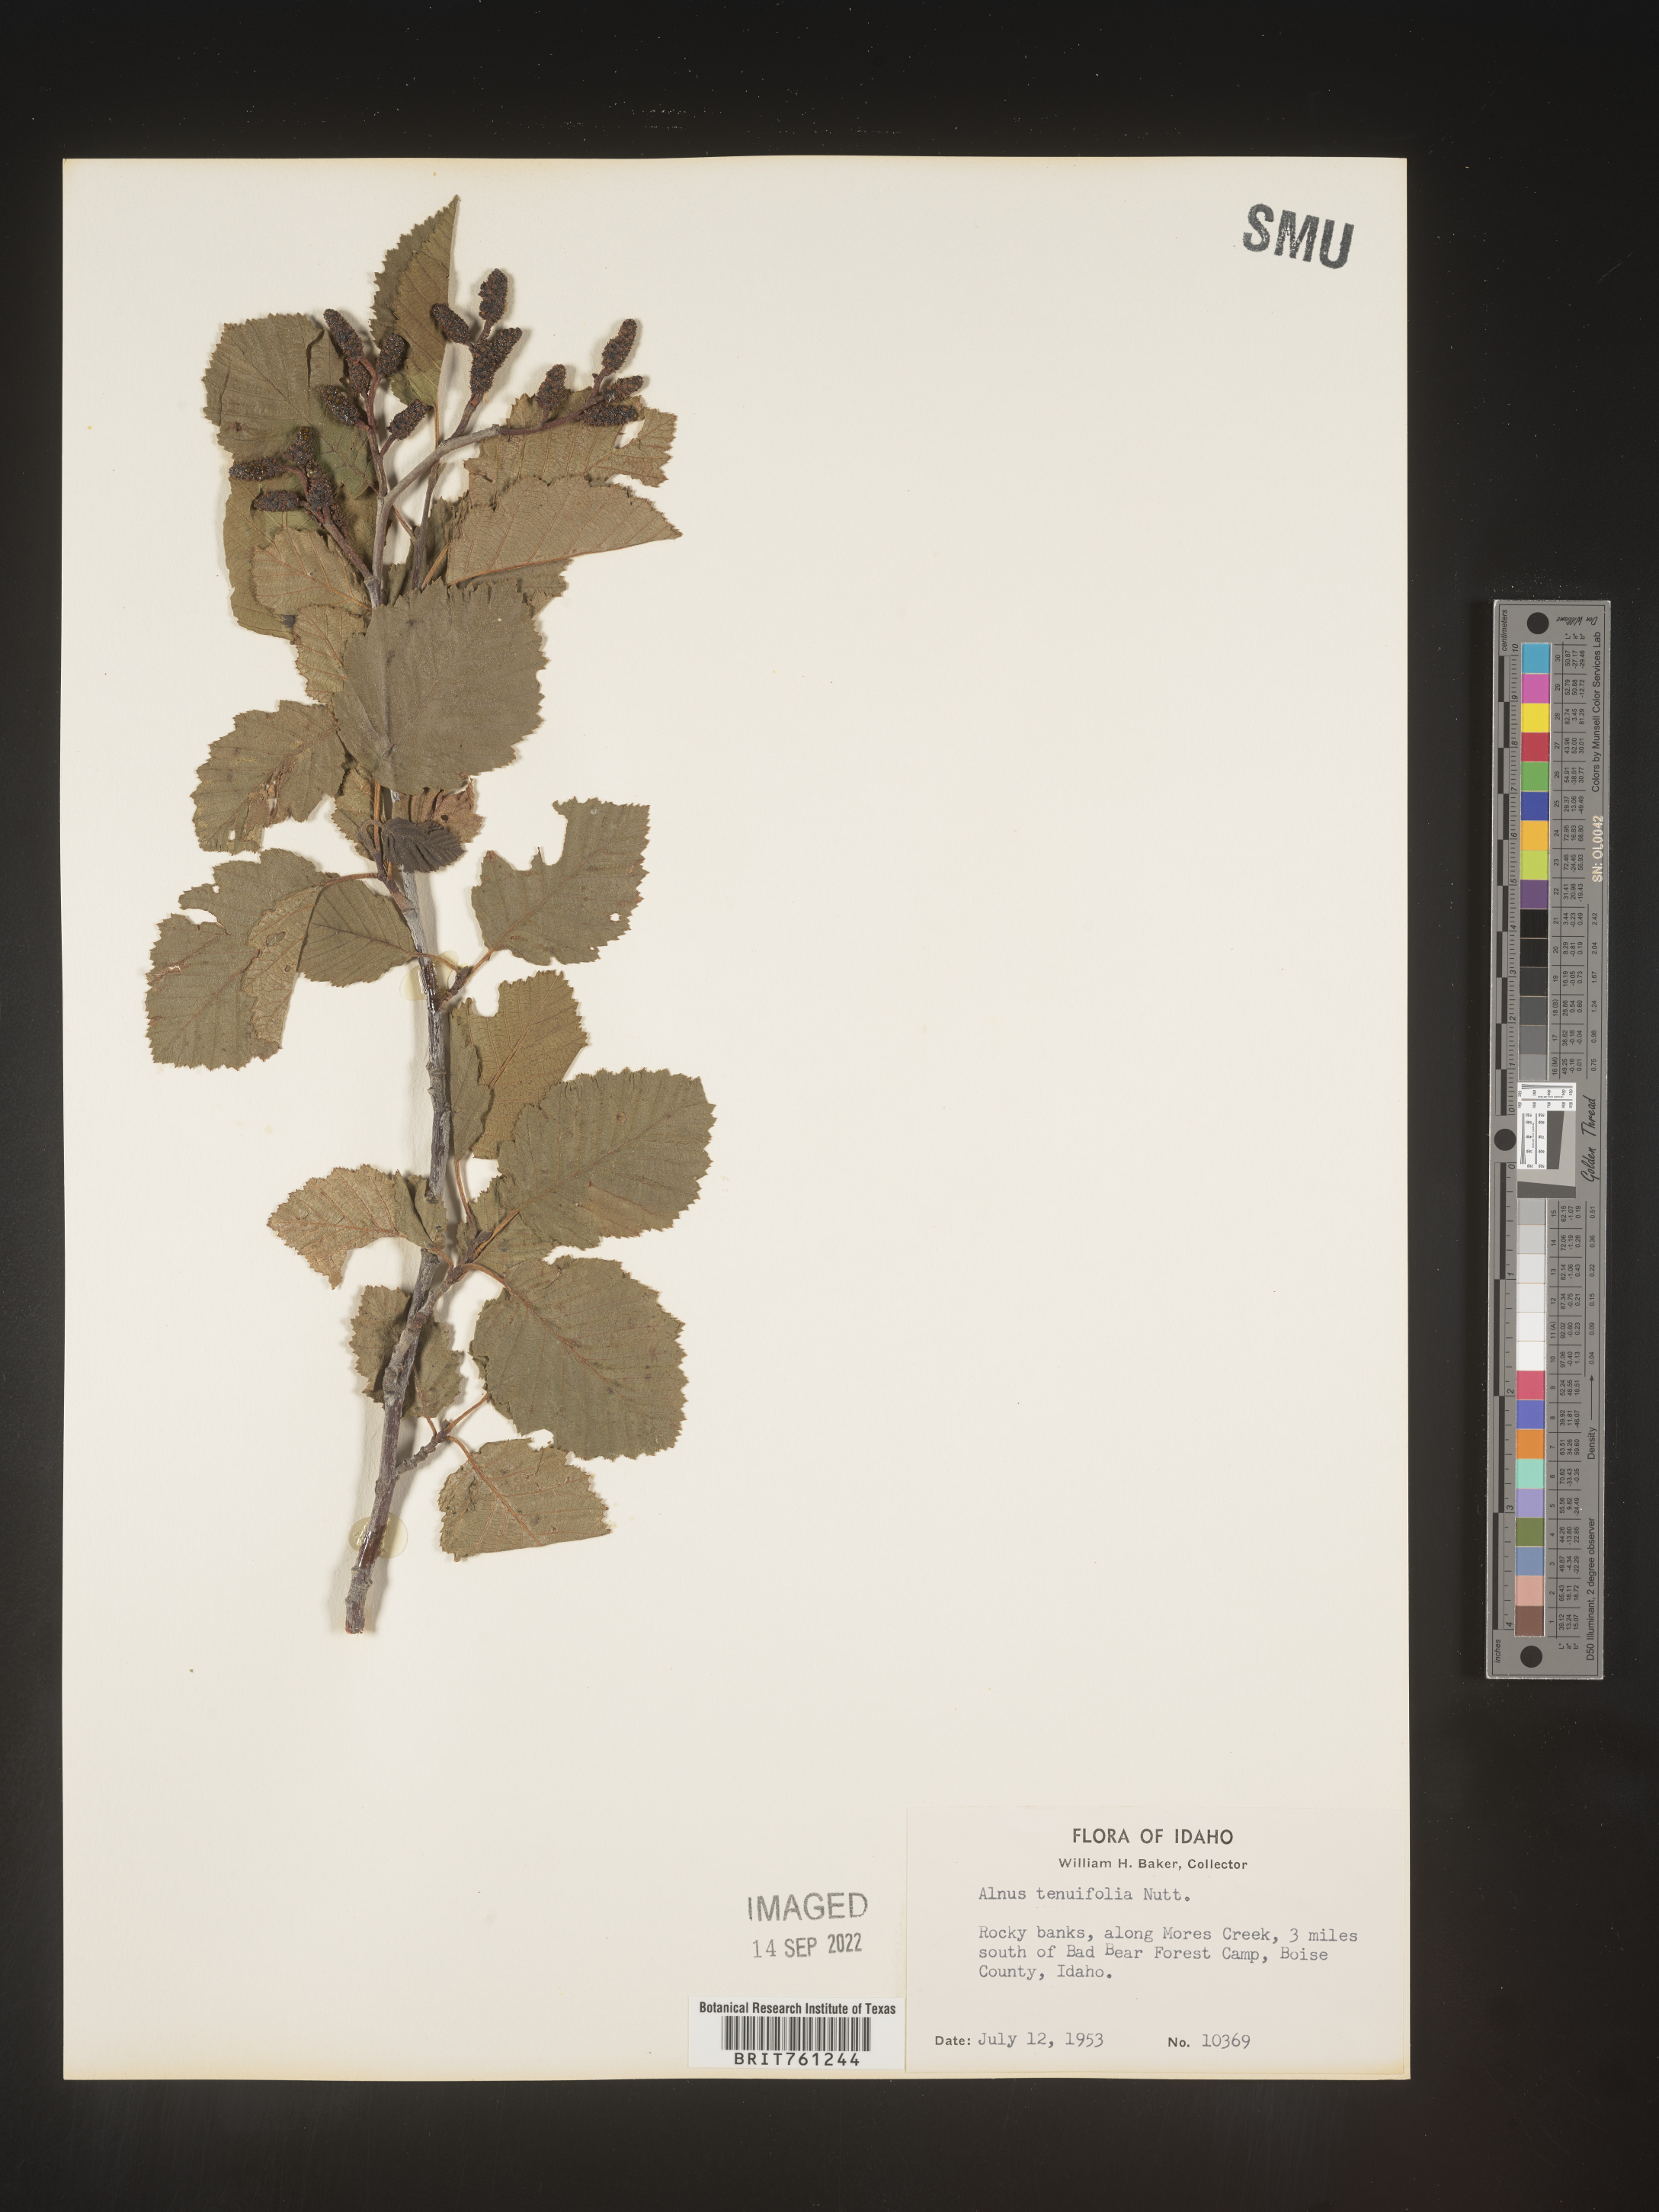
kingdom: Plantae
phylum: Tracheophyta
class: Magnoliopsida
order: Fagales
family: Betulaceae
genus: Alnus
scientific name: Alnus incana
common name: Grey alder
